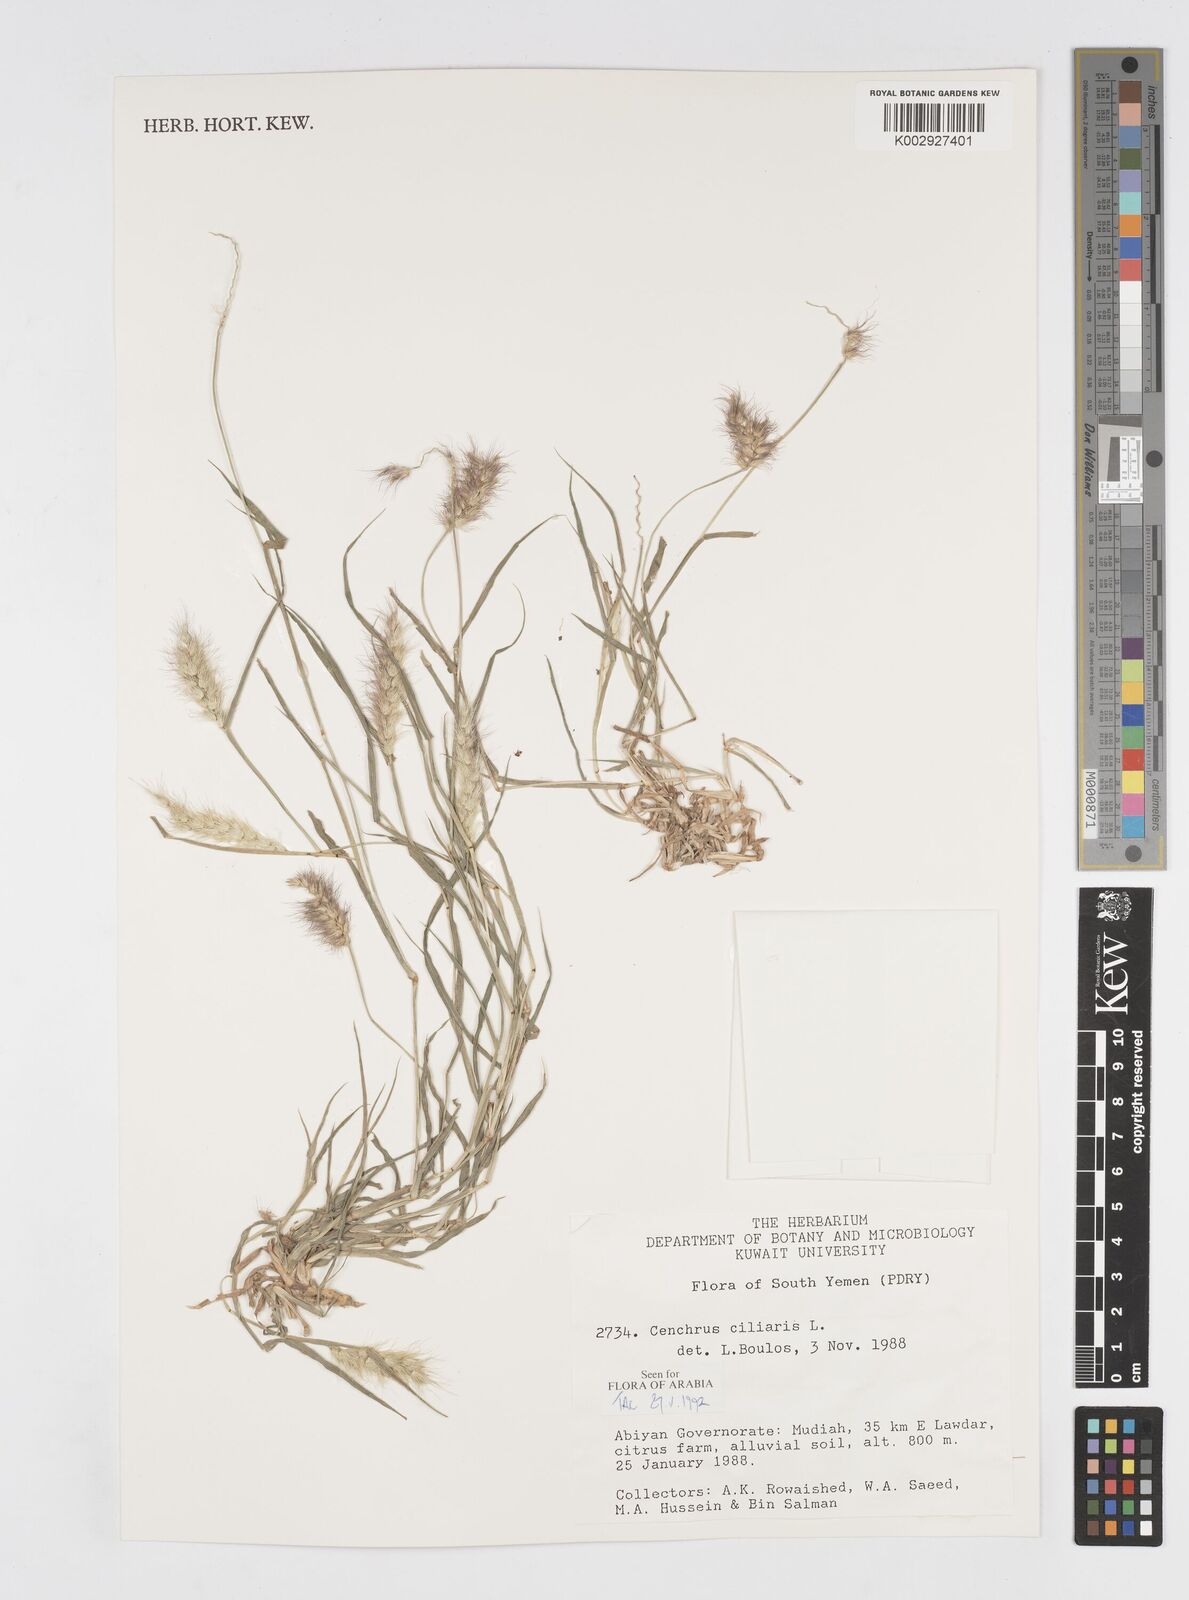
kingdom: Plantae
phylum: Tracheophyta
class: Liliopsida
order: Poales
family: Poaceae
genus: Cenchrus
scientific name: Cenchrus ciliaris
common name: Buffelgrass
